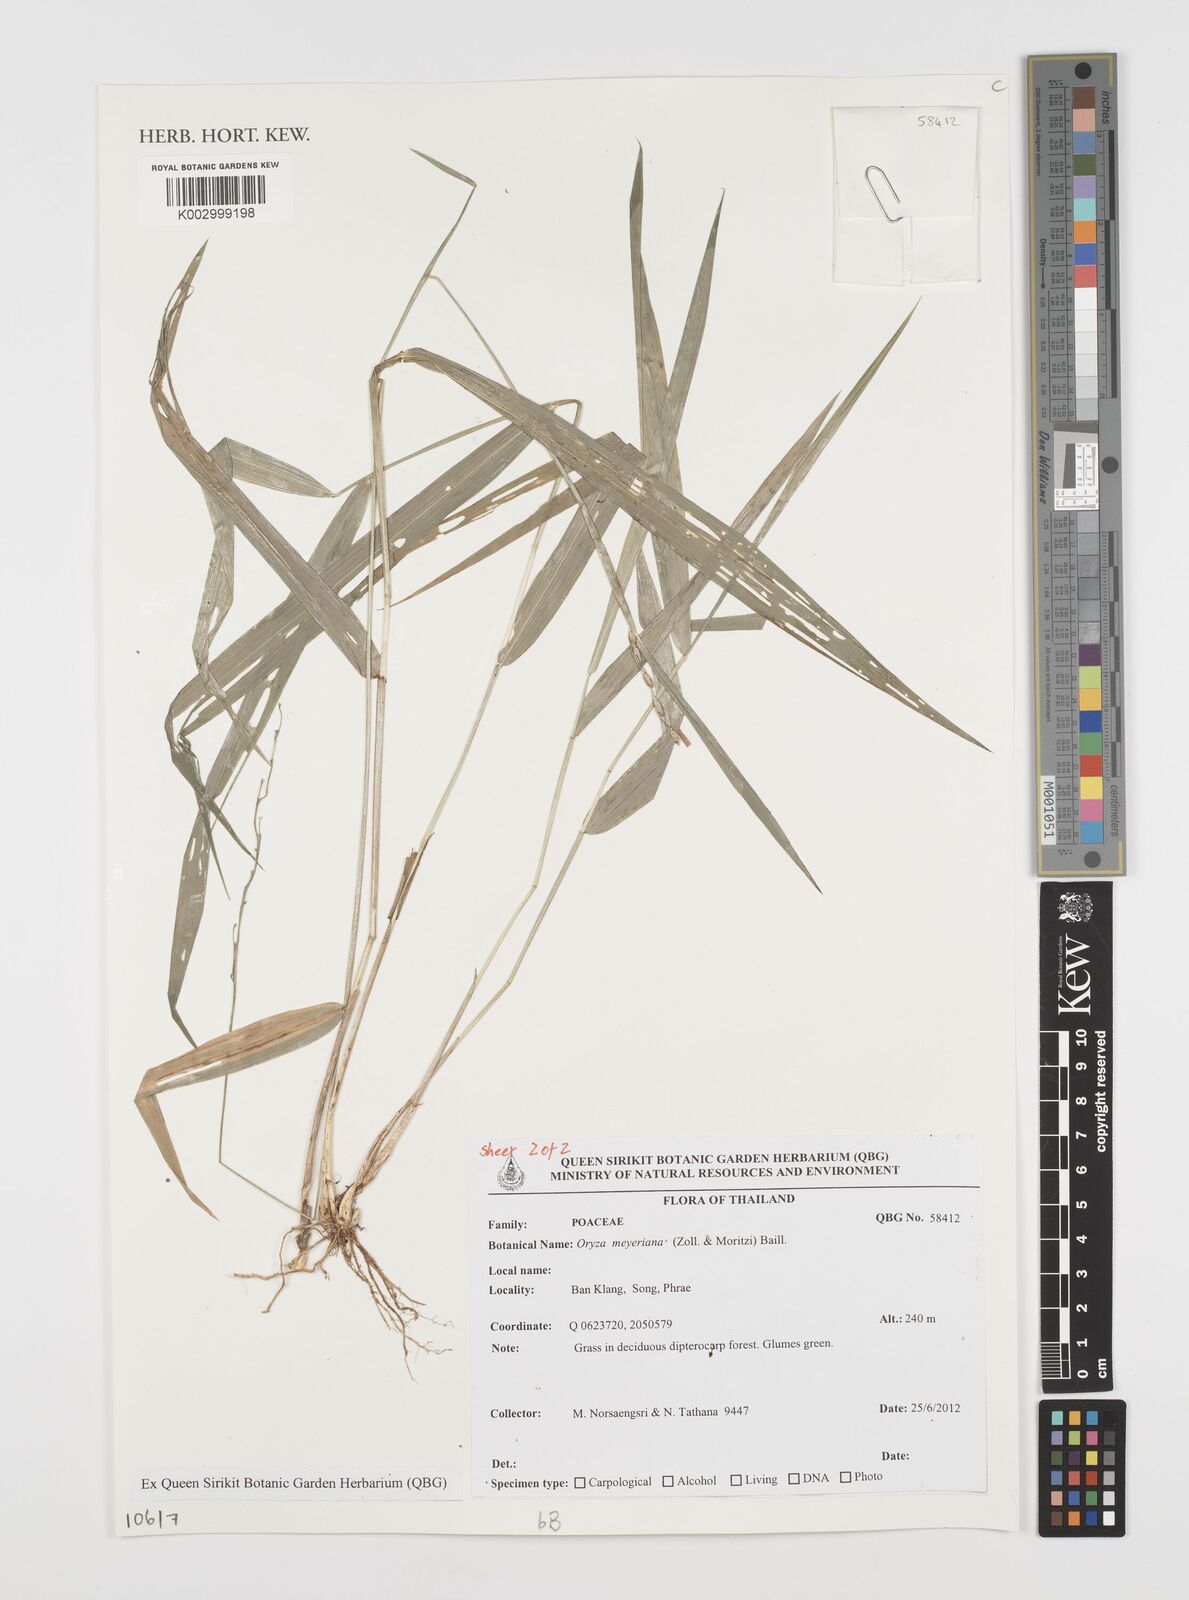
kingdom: Plantae
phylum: Tracheophyta
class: Liliopsida
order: Poales
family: Poaceae
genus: Oryza
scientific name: Oryza meyeriana
